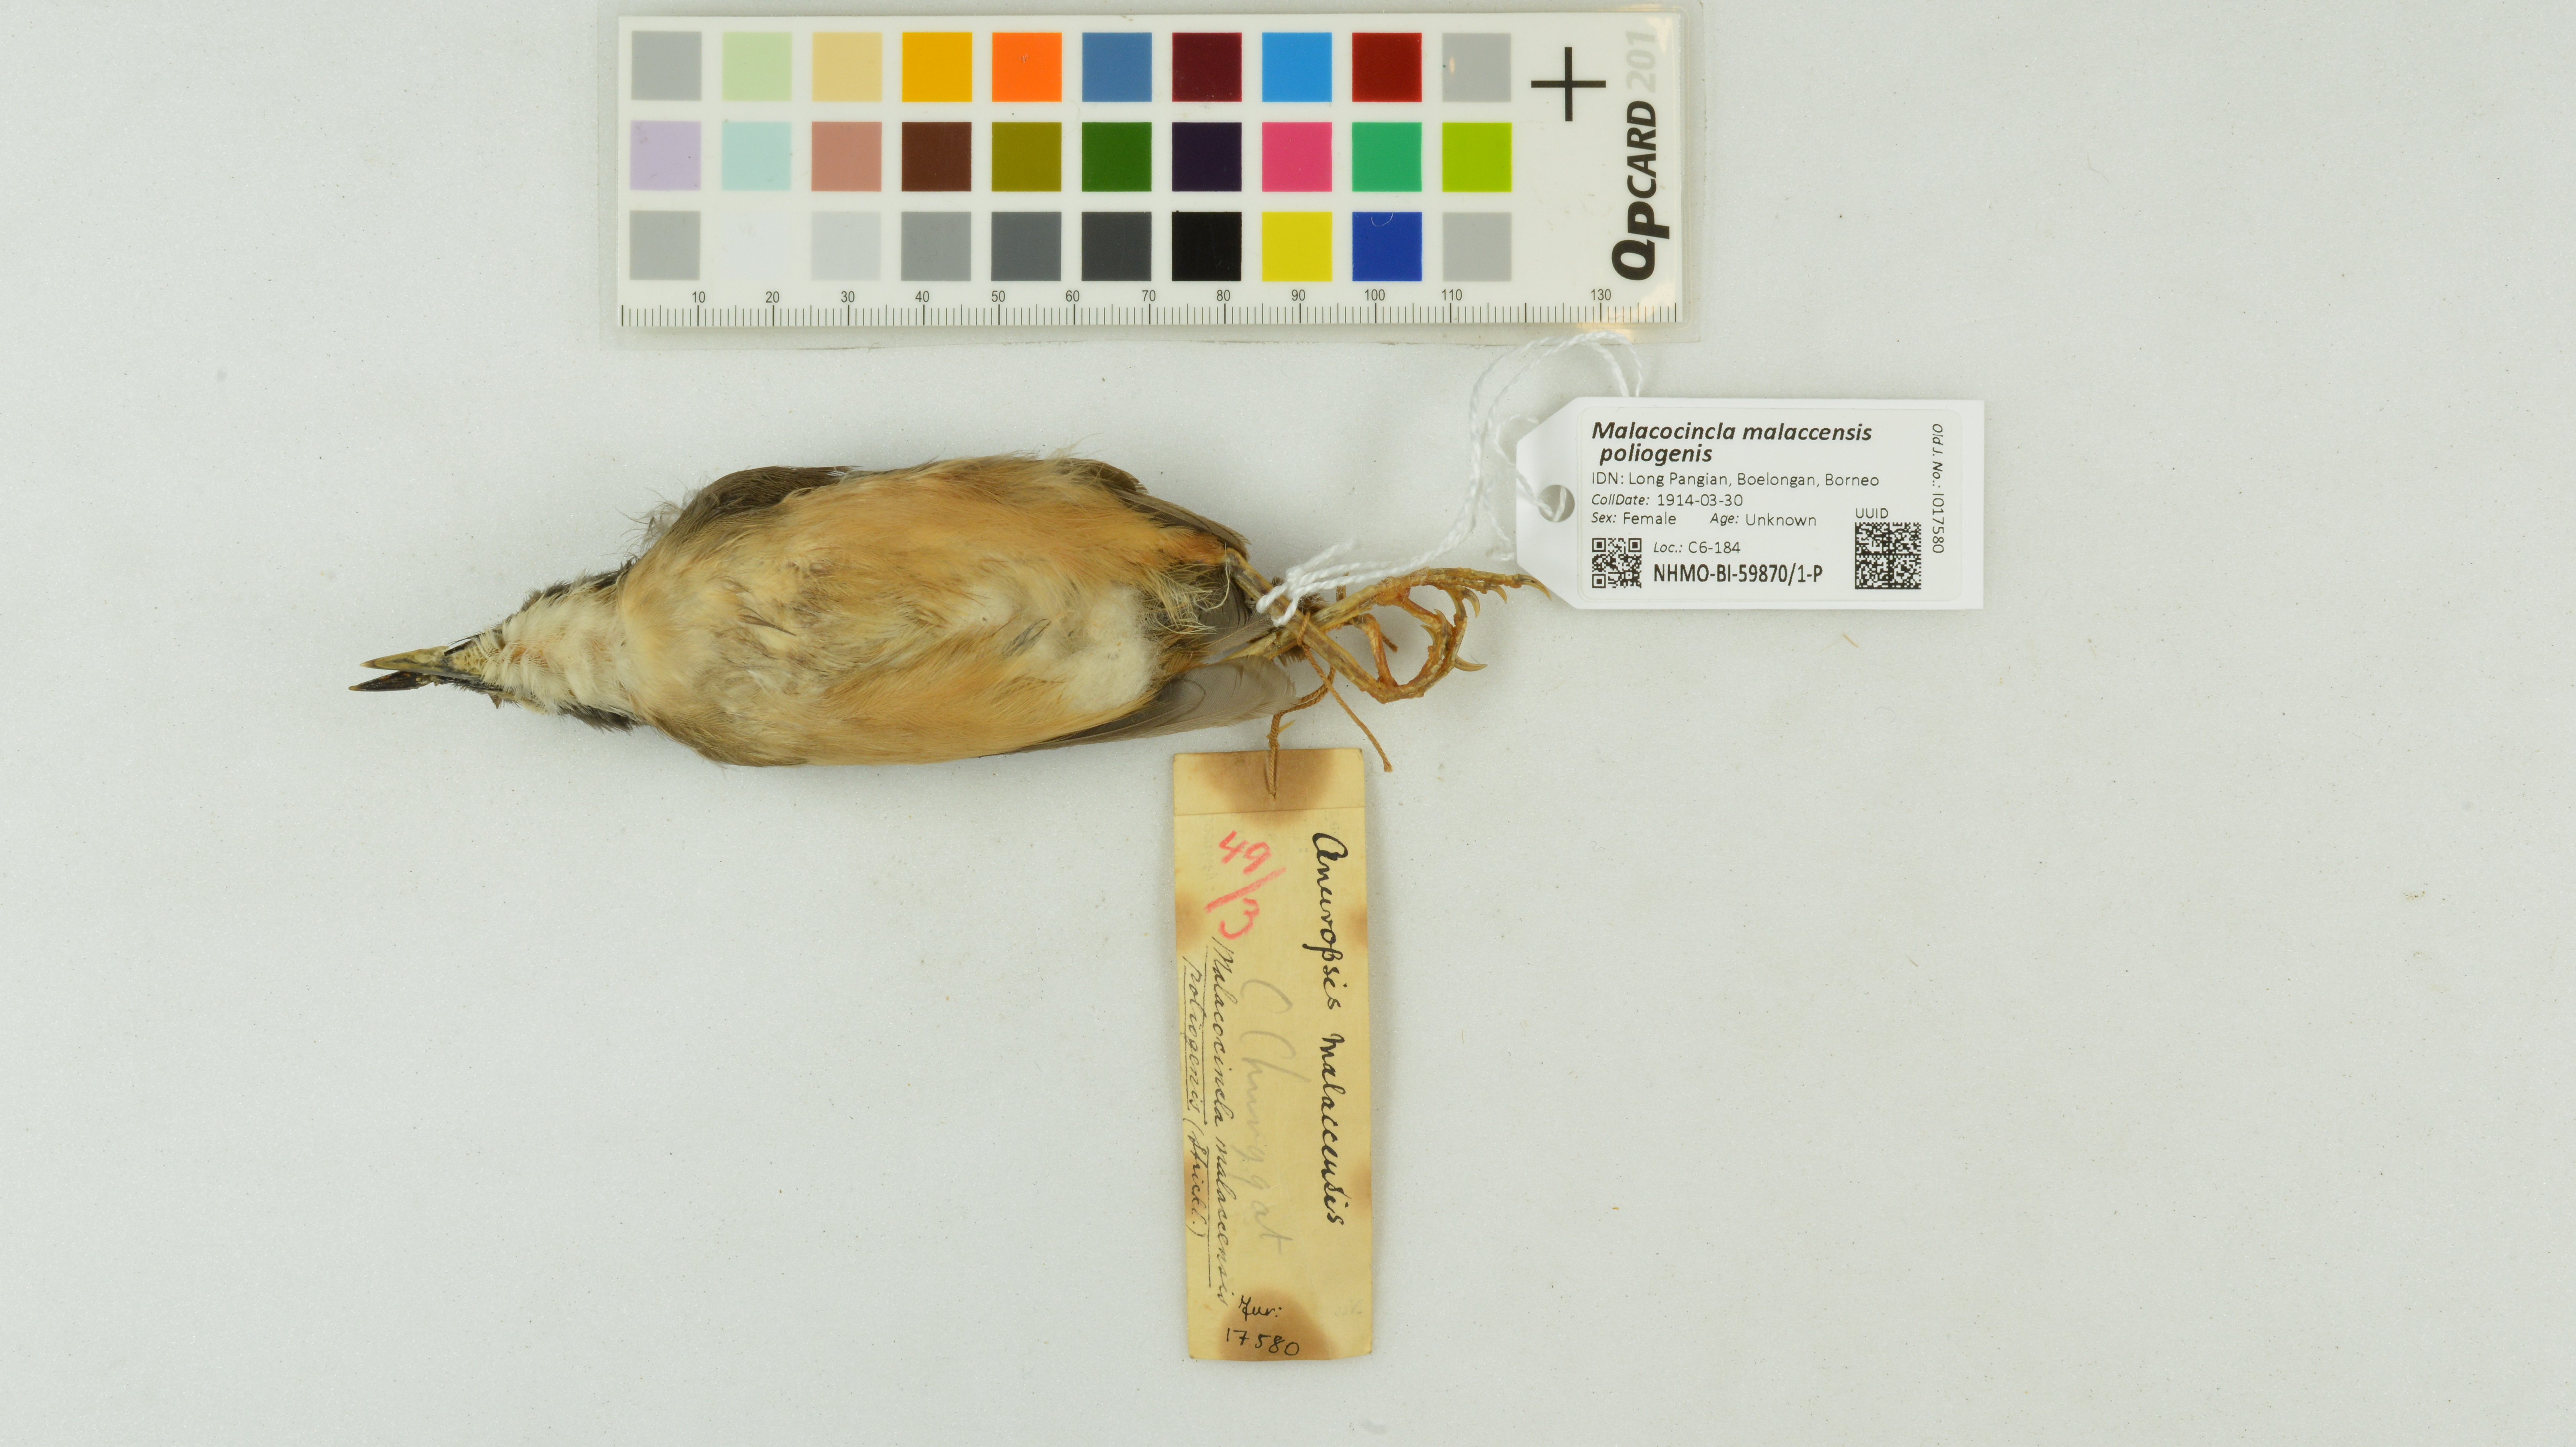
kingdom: Animalia
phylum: Chordata
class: Aves
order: Passeriformes
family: Pellorneidae
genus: Pellorneum
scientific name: Pellorneum malaccense
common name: Short-tailed babbler
